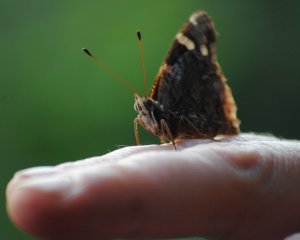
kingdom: Animalia
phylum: Arthropoda
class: Insecta
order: Lepidoptera
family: Nymphalidae
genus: Vanessa
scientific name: Vanessa atalanta
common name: Red Admiral
